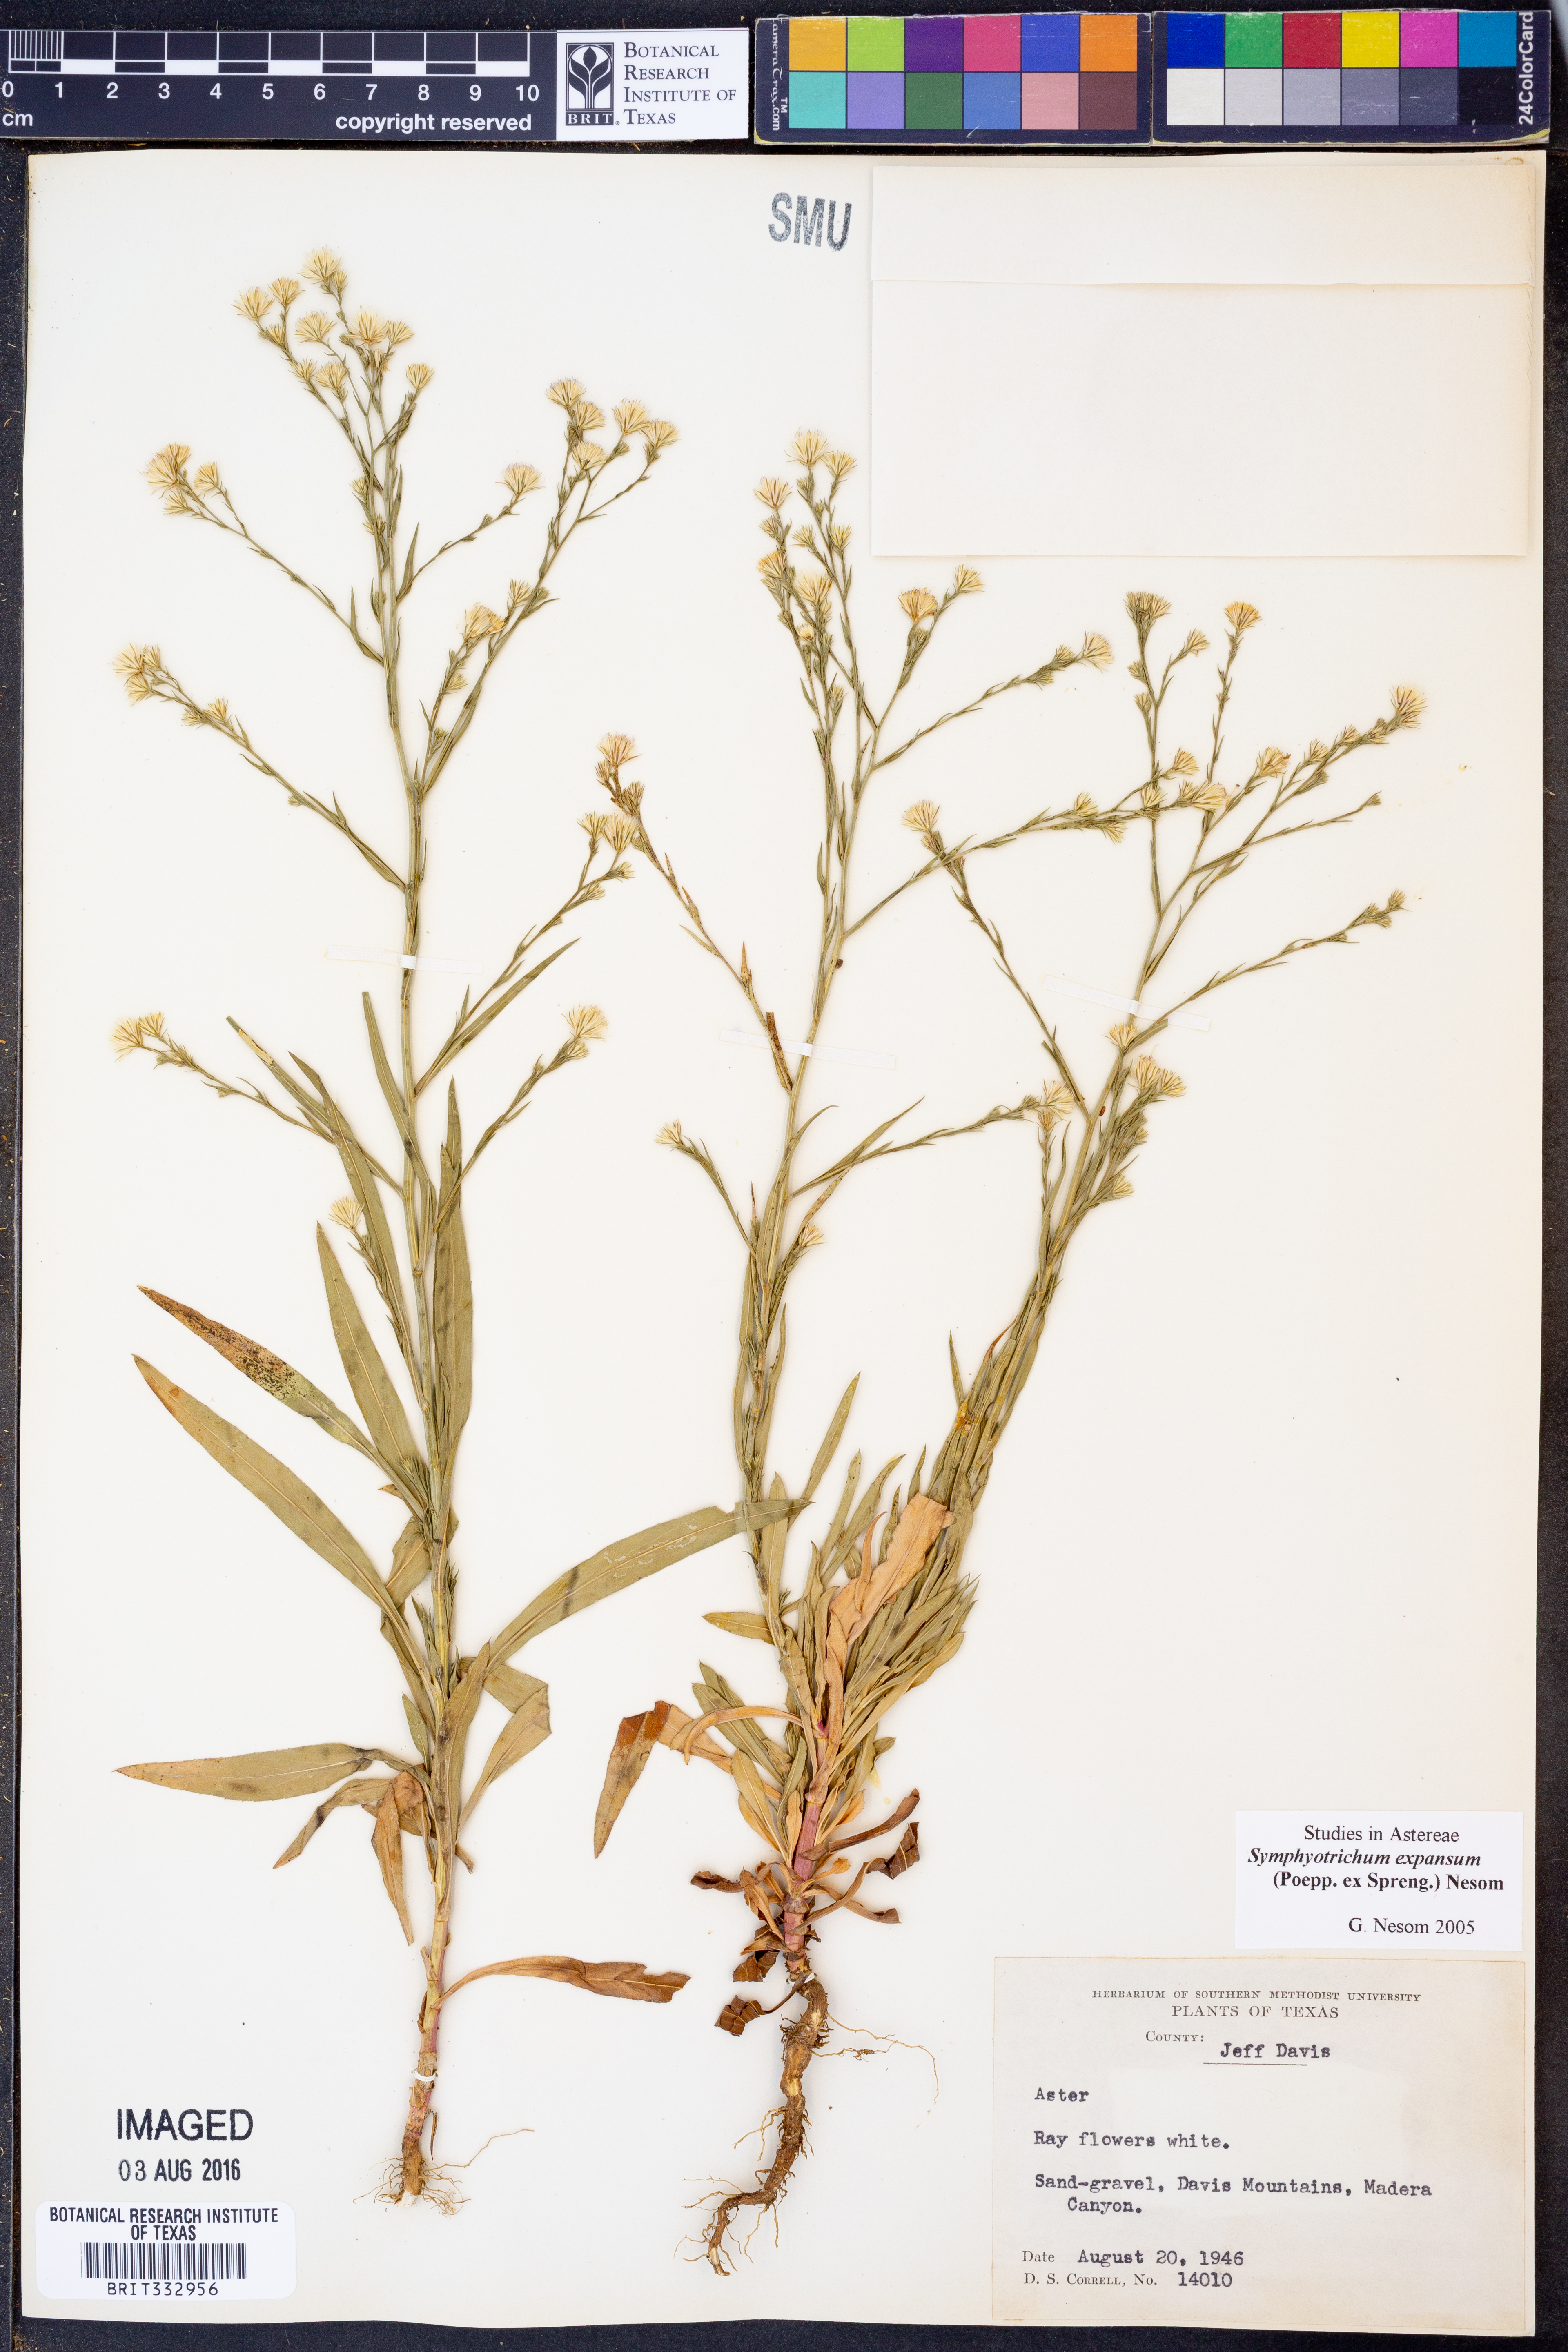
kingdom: Plantae
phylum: Tracheophyta
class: Magnoliopsida
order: Asterales
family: Asteraceae
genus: Symphyotrichum
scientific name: Symphyotrichum expansum
